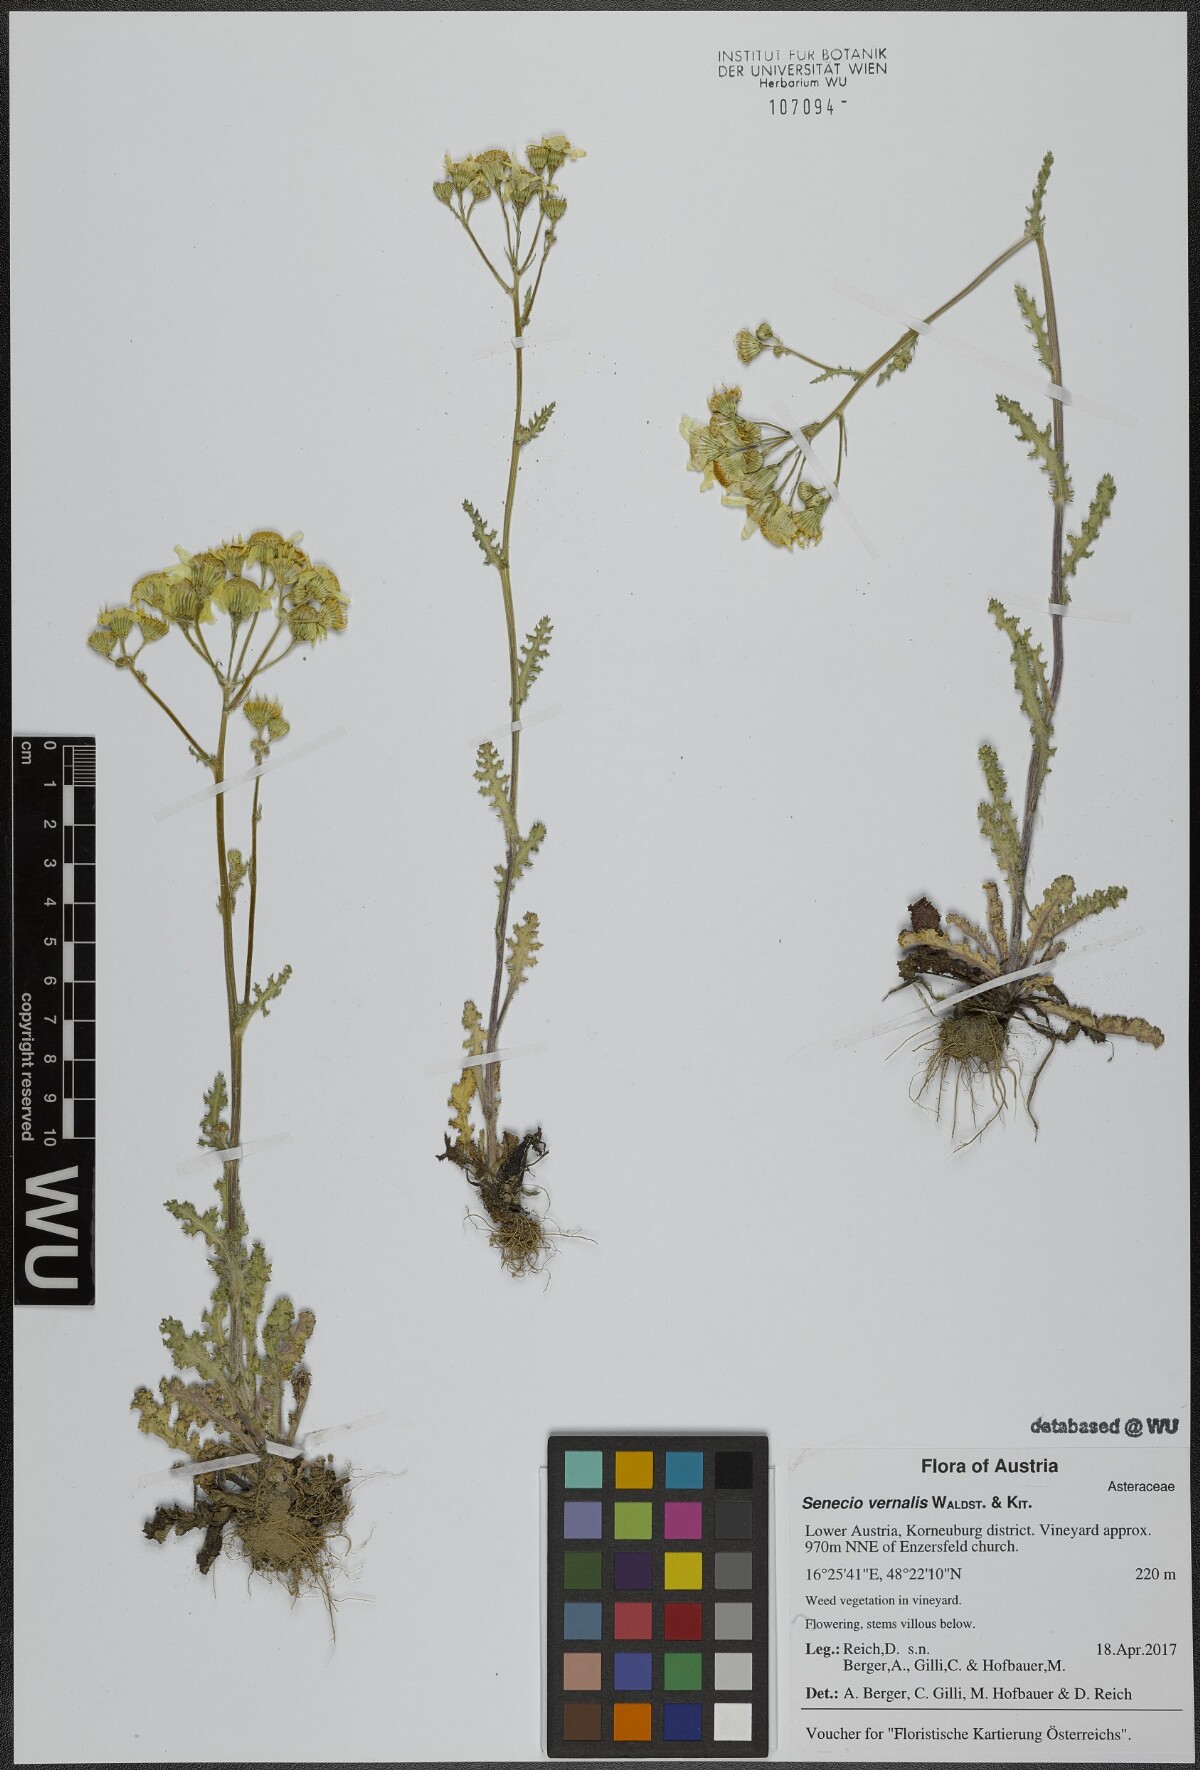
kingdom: Plantae
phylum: Tracheophyta
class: Magnoliopsida
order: Asterales
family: Asteraceae
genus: Senecio
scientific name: Senecio vernalis
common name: Eastern groundsel
